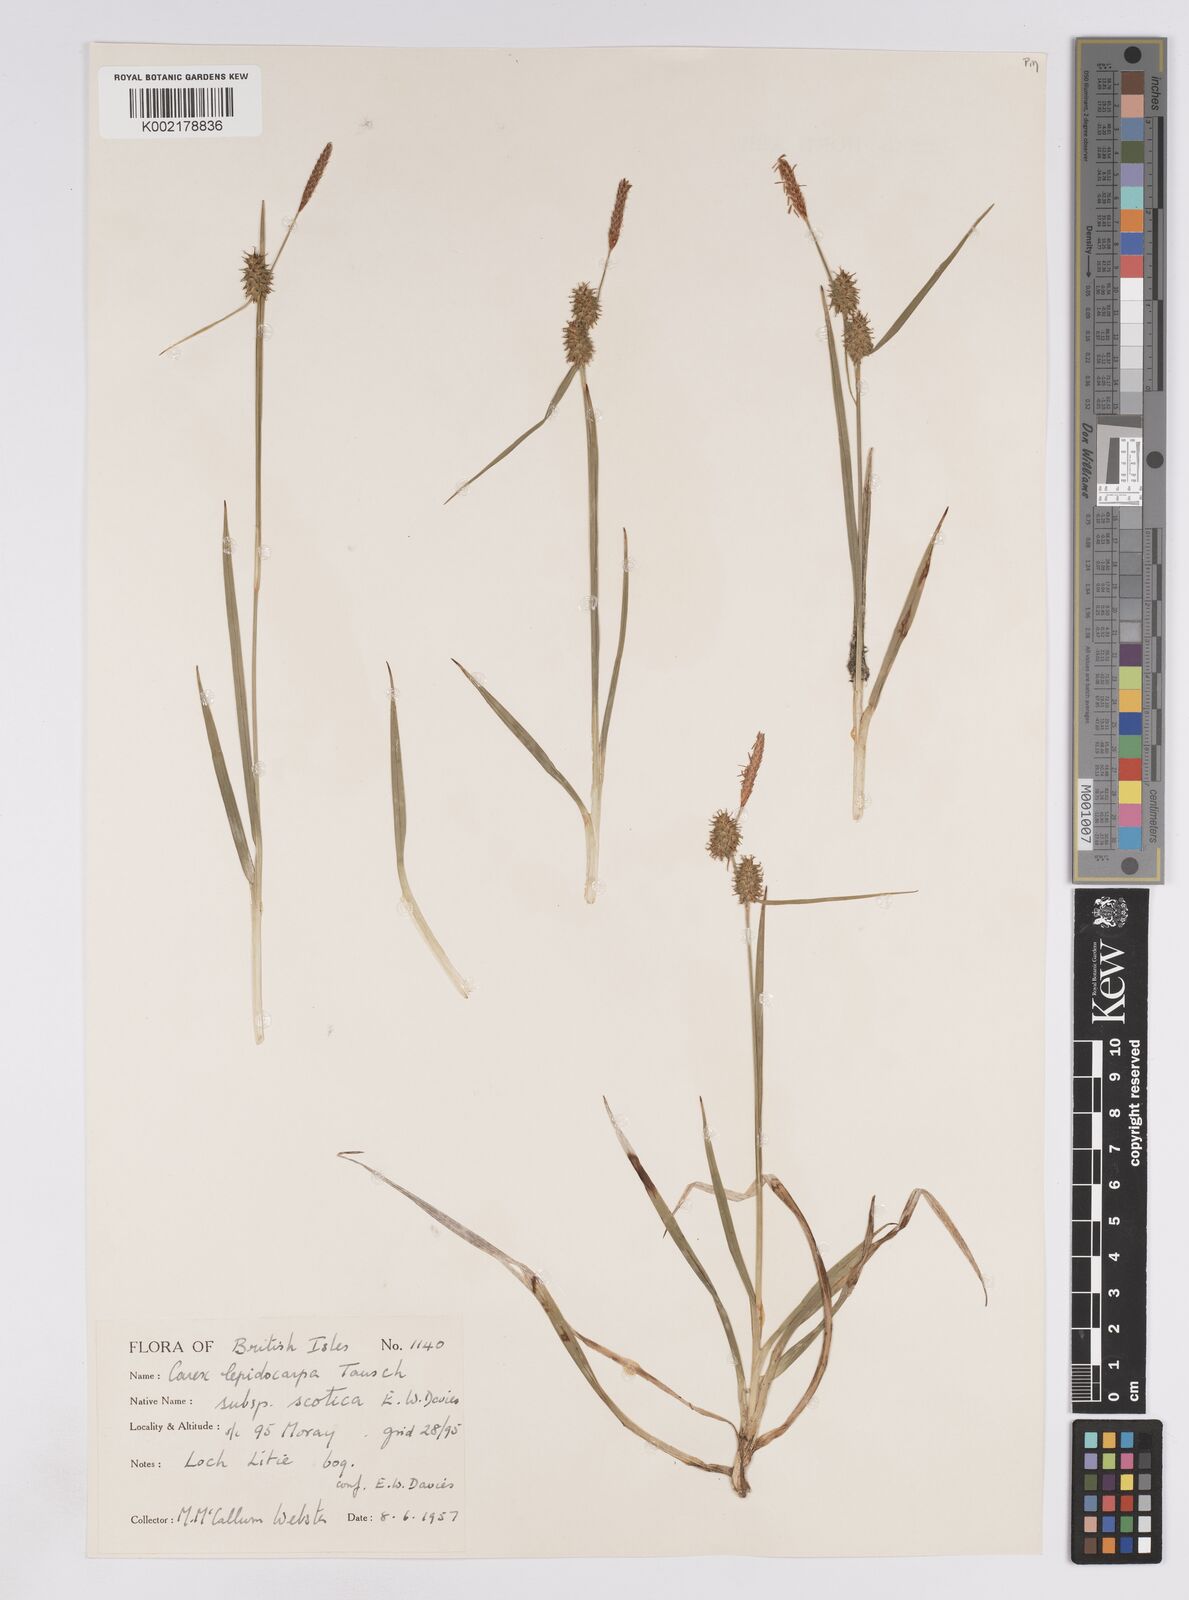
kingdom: Plantae
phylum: Tracheophyta
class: Liliopsida
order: Poales
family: Cyperaceae
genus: Carex
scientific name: Carex lepidocarpa
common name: Long-stalked yellow-sedge
